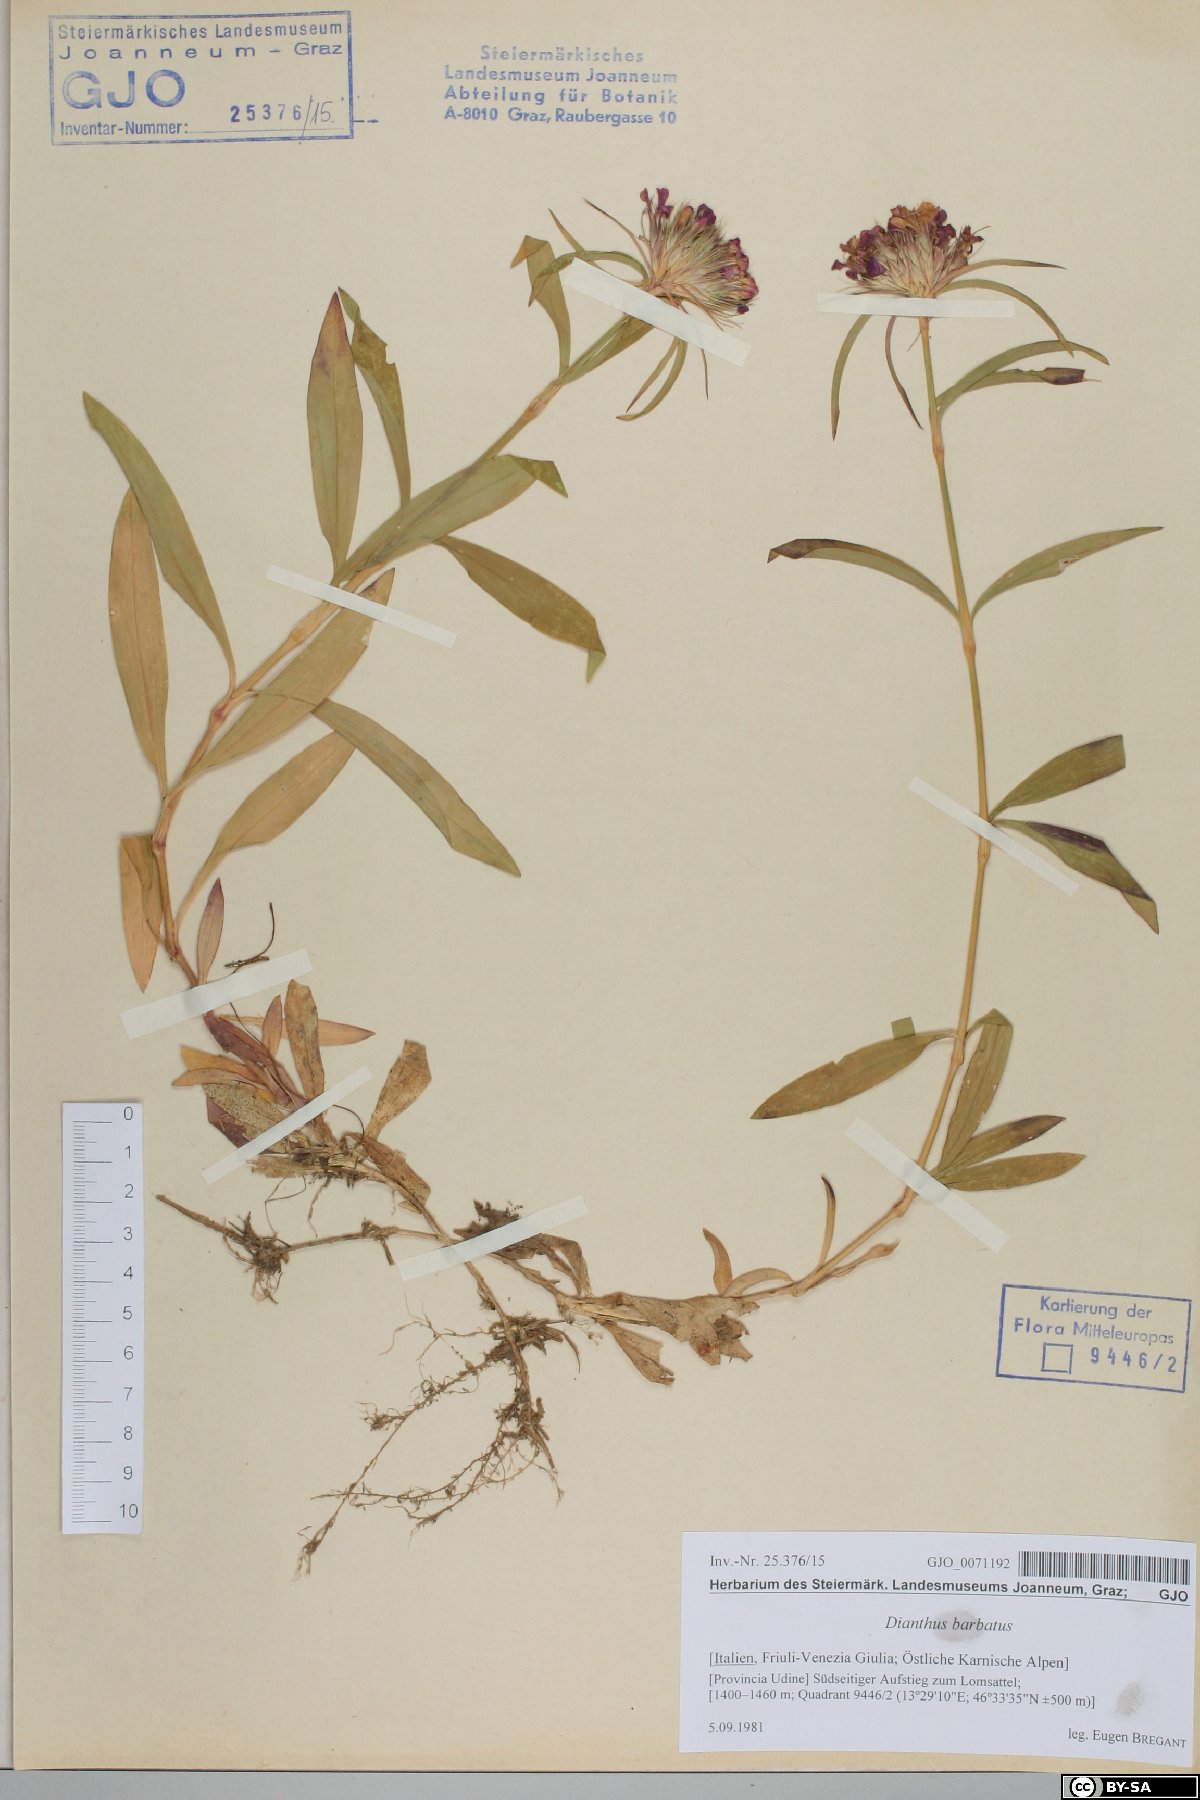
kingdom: Plantae
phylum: Tracheophyta
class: Magnoliopsida
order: Caryophyllales
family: Caryophyllaceae
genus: Dianthus
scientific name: Dianthus barbatus
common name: Sweet-william
